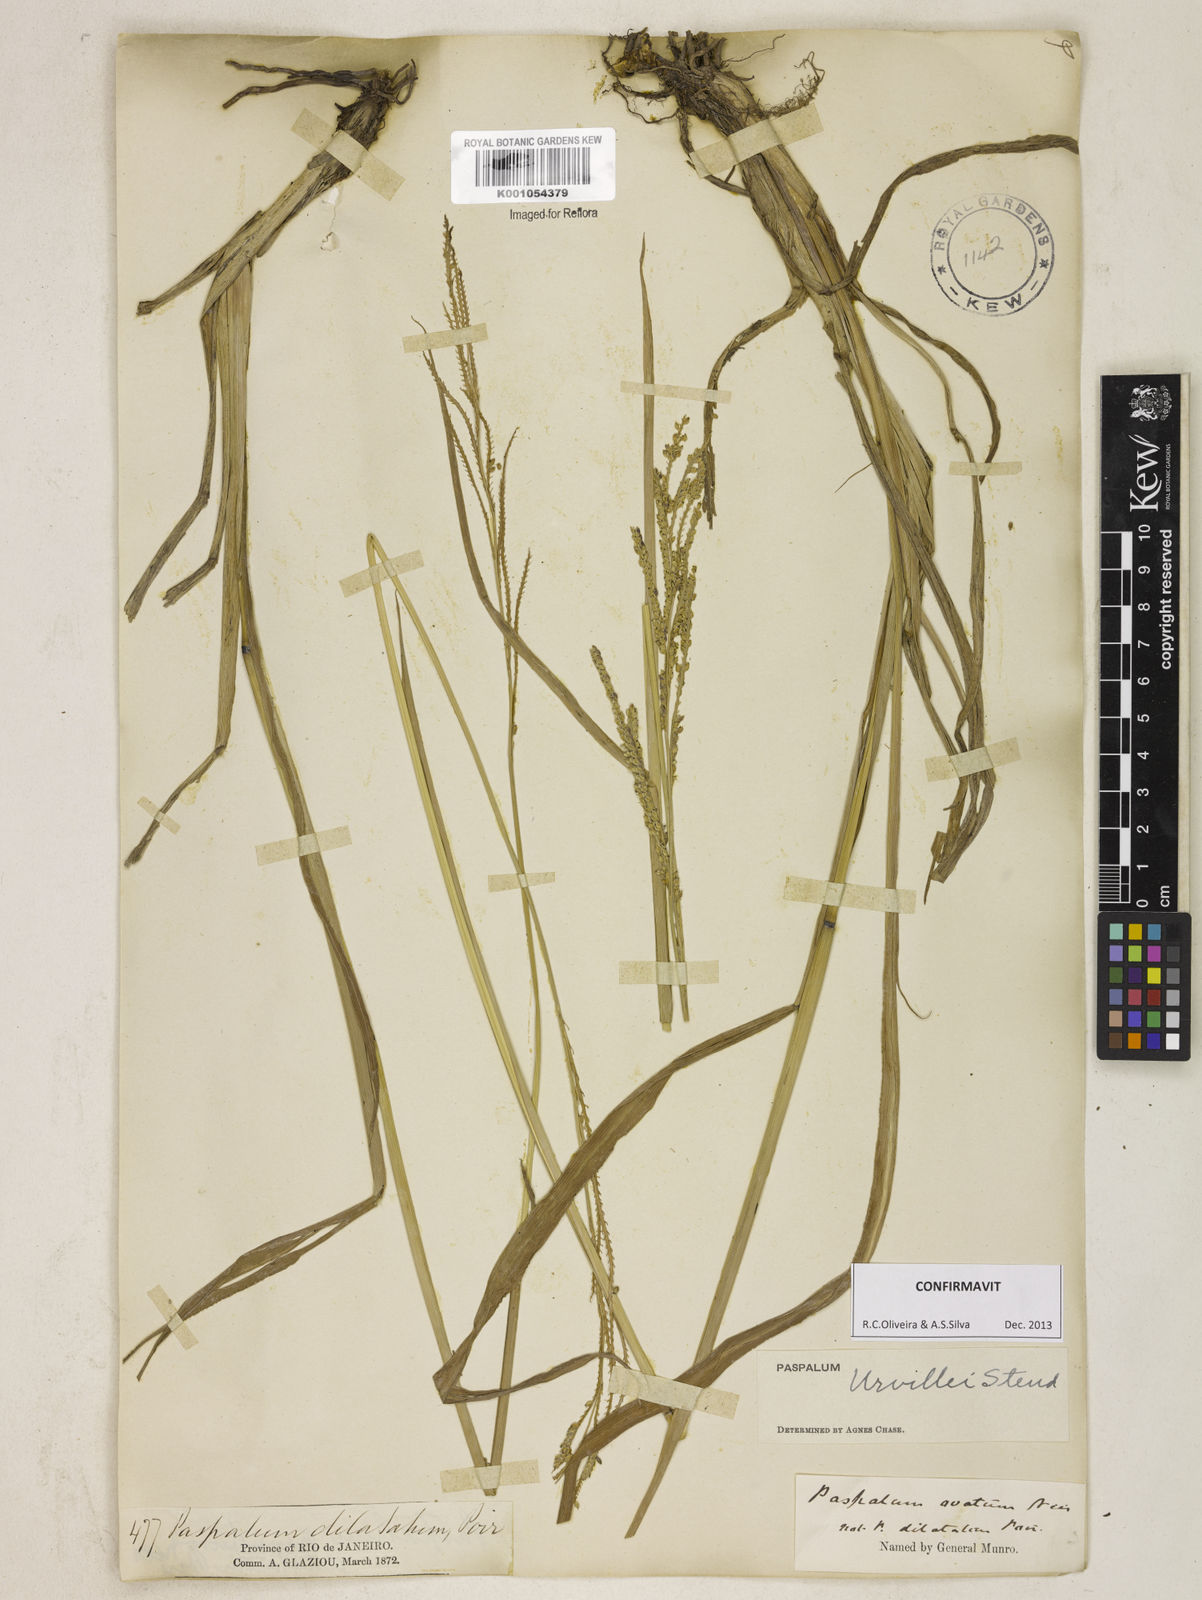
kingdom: Plantae
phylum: Tracheophyta
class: Liliopsida
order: Poales
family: Poaceae
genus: Paspalum
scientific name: Paspalum urvillei
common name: Vasey's grass
